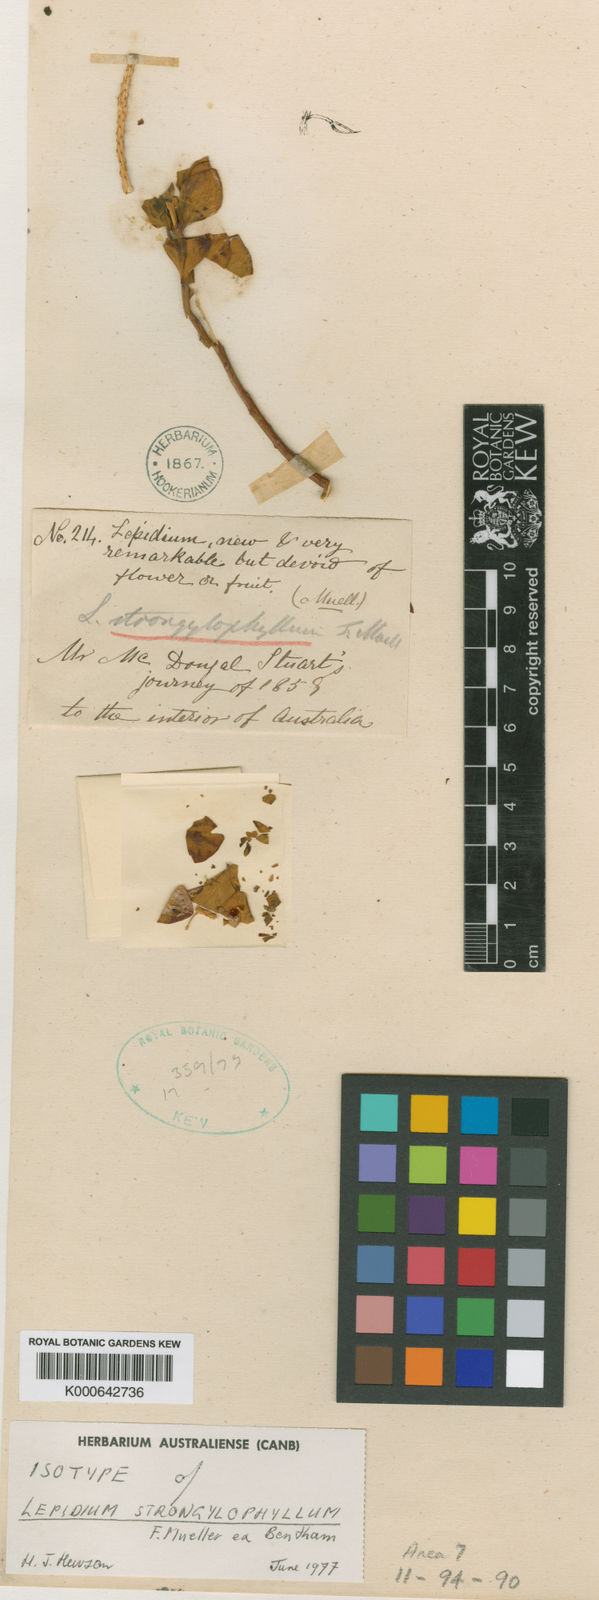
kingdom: Plantae
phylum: Tracheophyta
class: Magnoliopsida
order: Brassicales
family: Brassicaceae
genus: Lepidium
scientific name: Lepidium strongylophyllum
